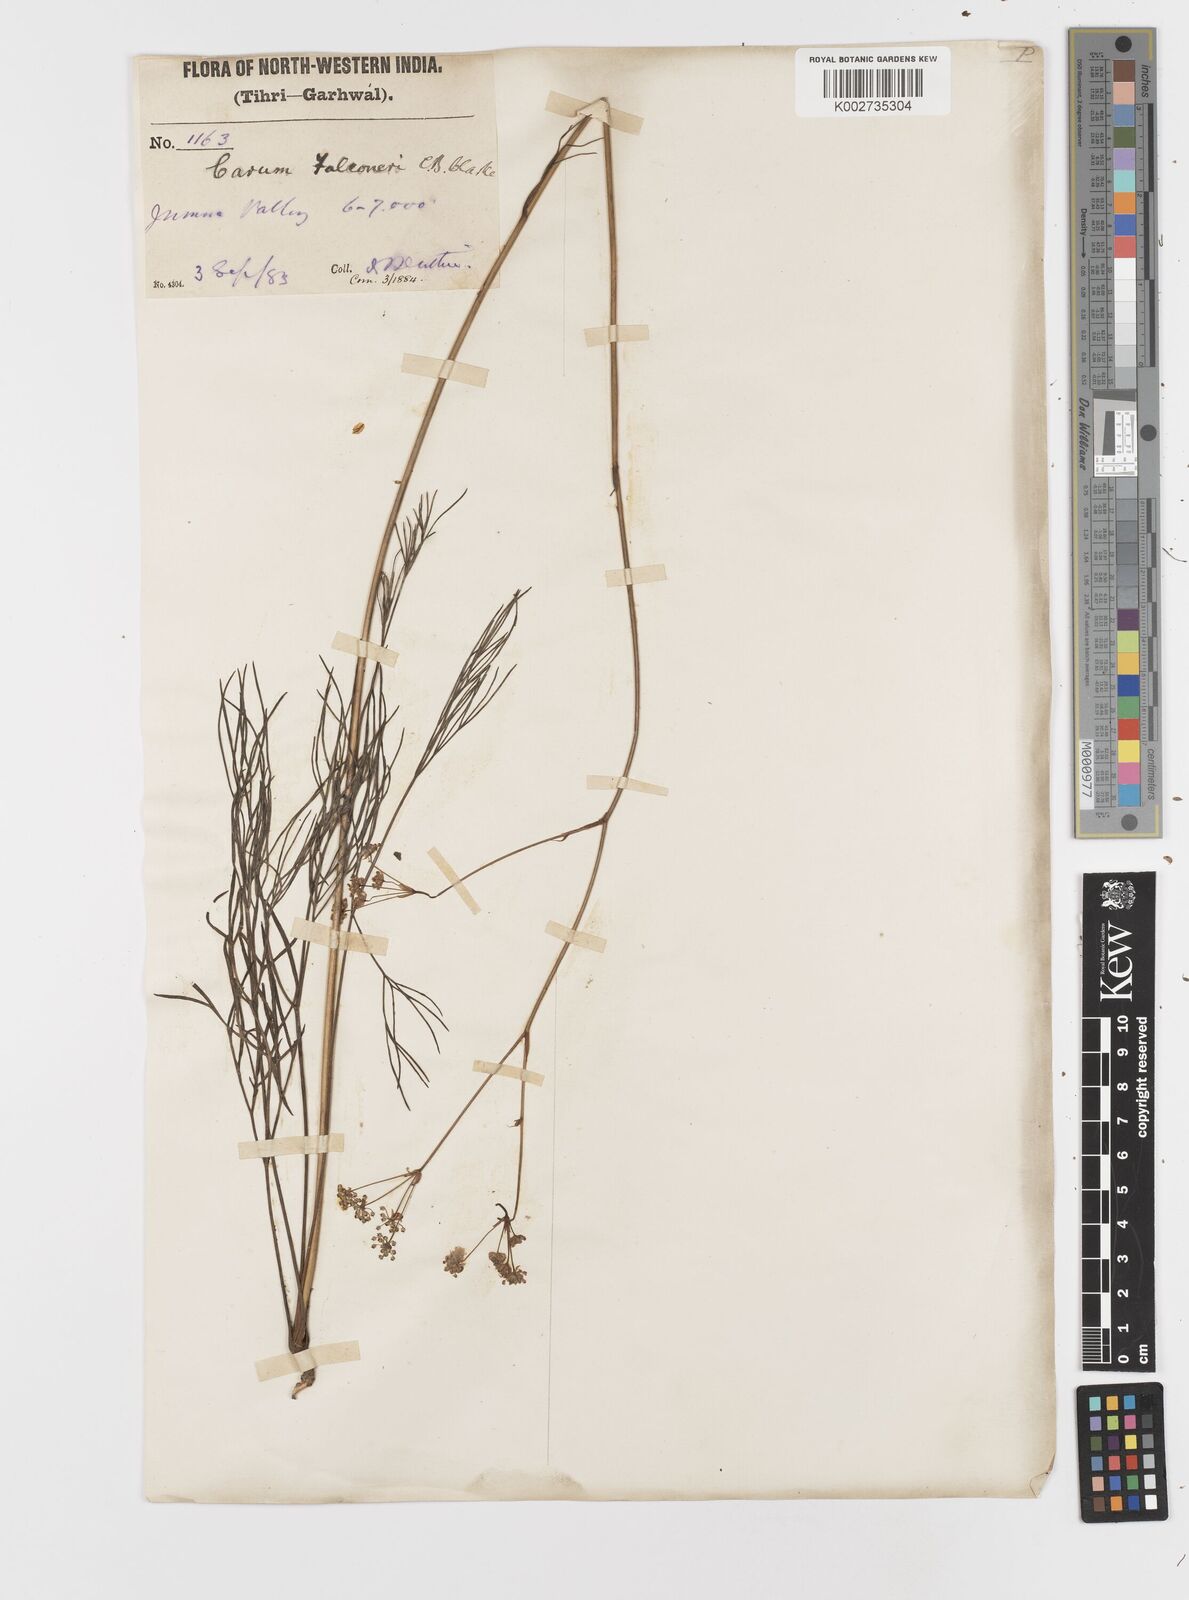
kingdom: Plantae
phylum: Tracheophyta
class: Magnoliopsida
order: Apiales
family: Apiaceae
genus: Trachyspermum
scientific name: Trachyspermum falconeri
